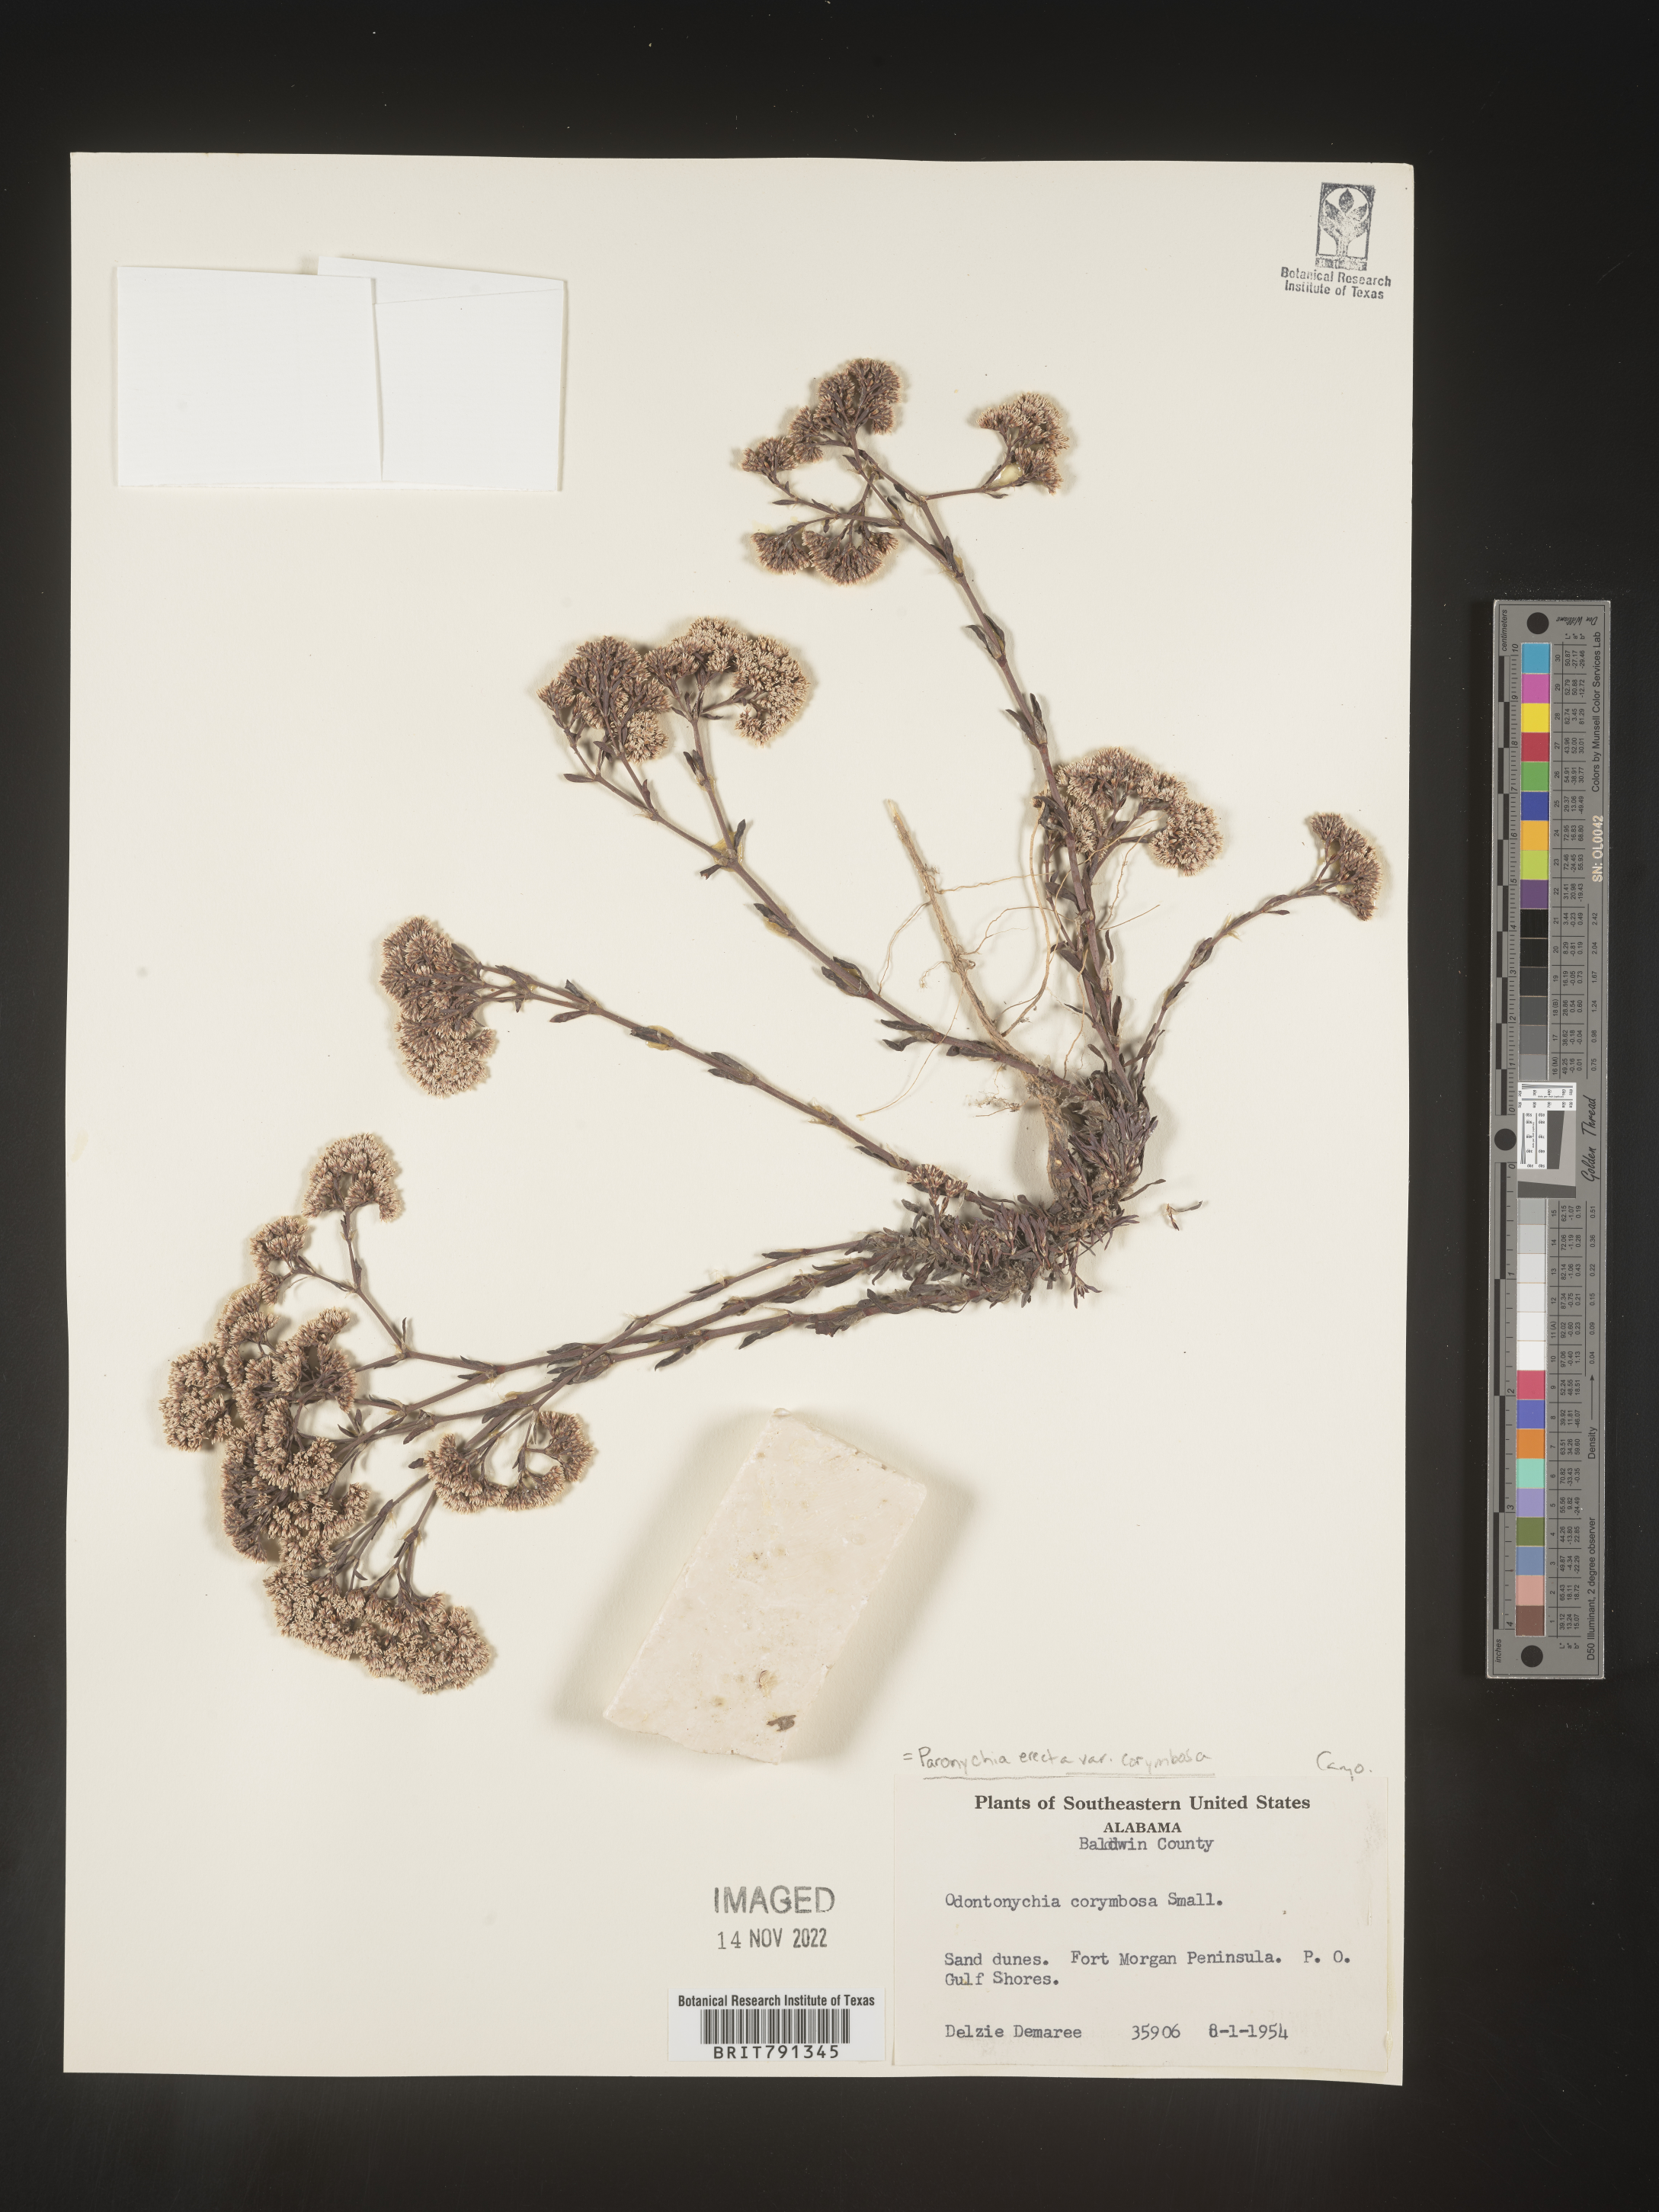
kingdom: Plantae
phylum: Tracheophyta
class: Magnoliopsida
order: Caryophyllales
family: Caryophyllaceae
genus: Paronychia
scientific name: Paronychia erecta
